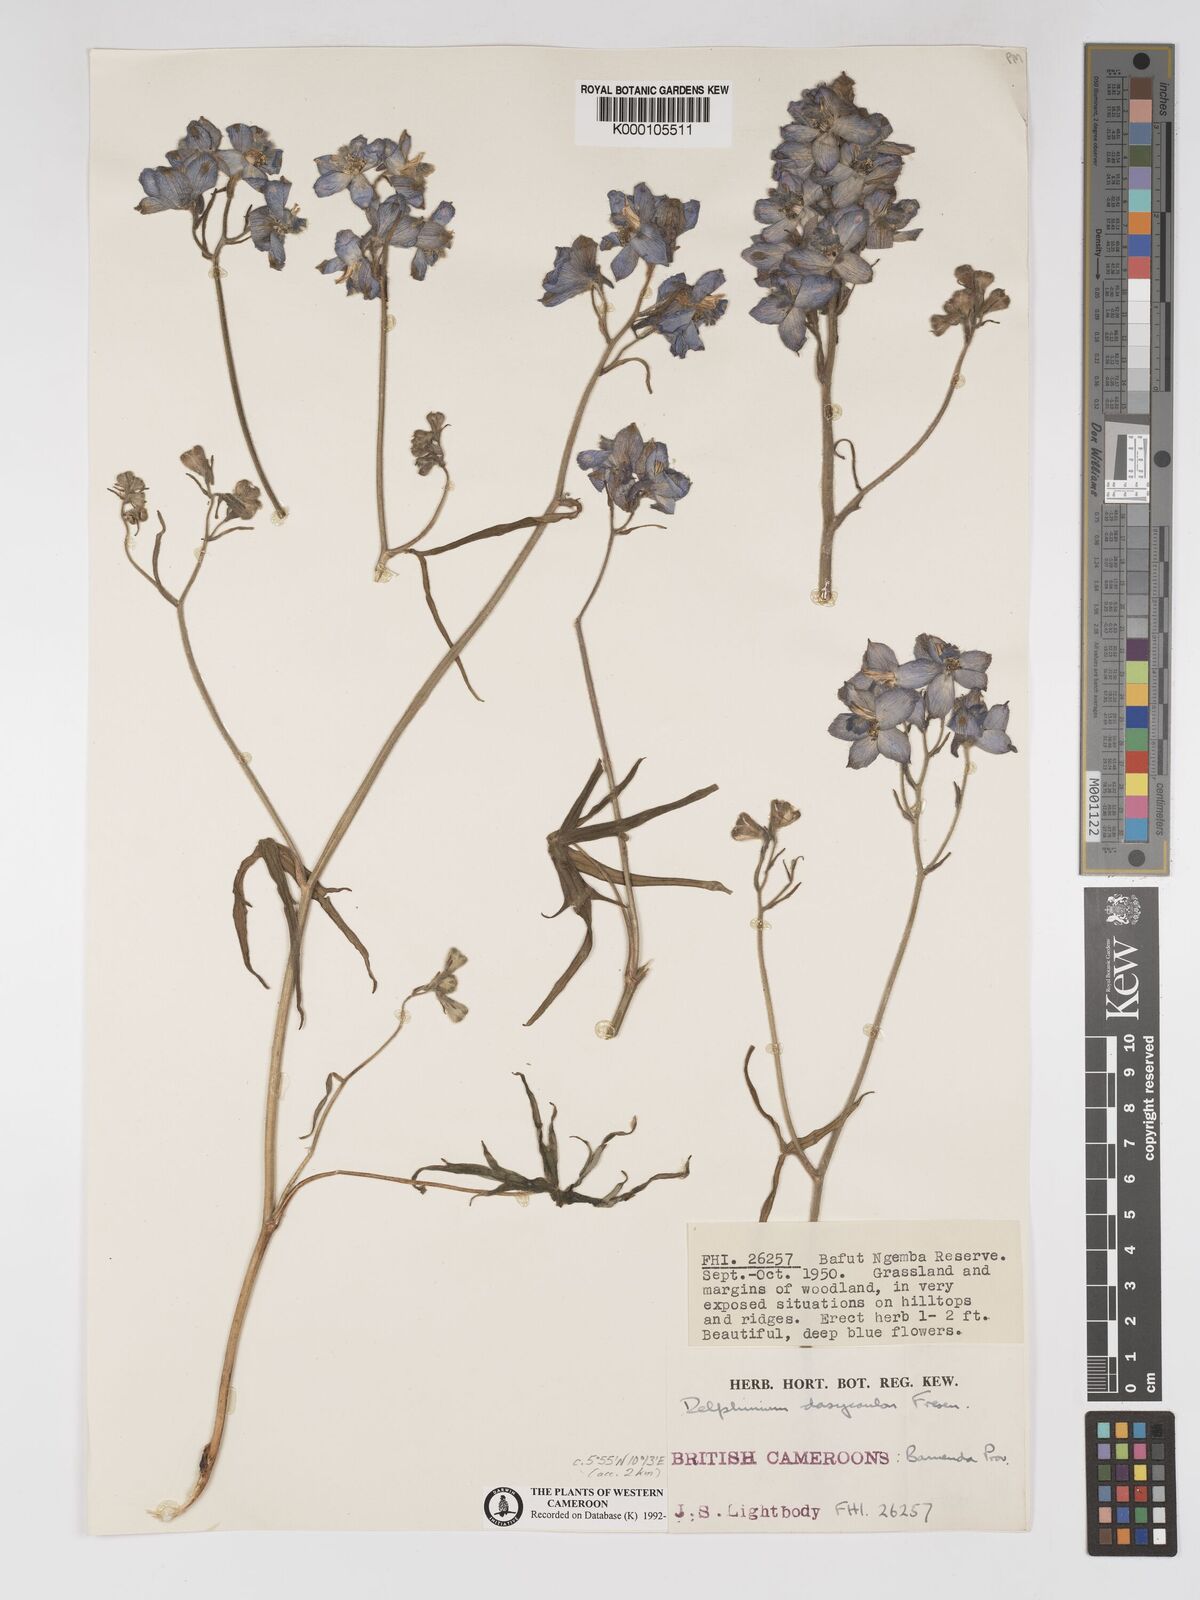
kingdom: Plantae
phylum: Tracheophyta
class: Magnoliopsida
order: Ranunculales
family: Ranunculaceae
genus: Delphinium
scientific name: Delphinium dasycaulon
